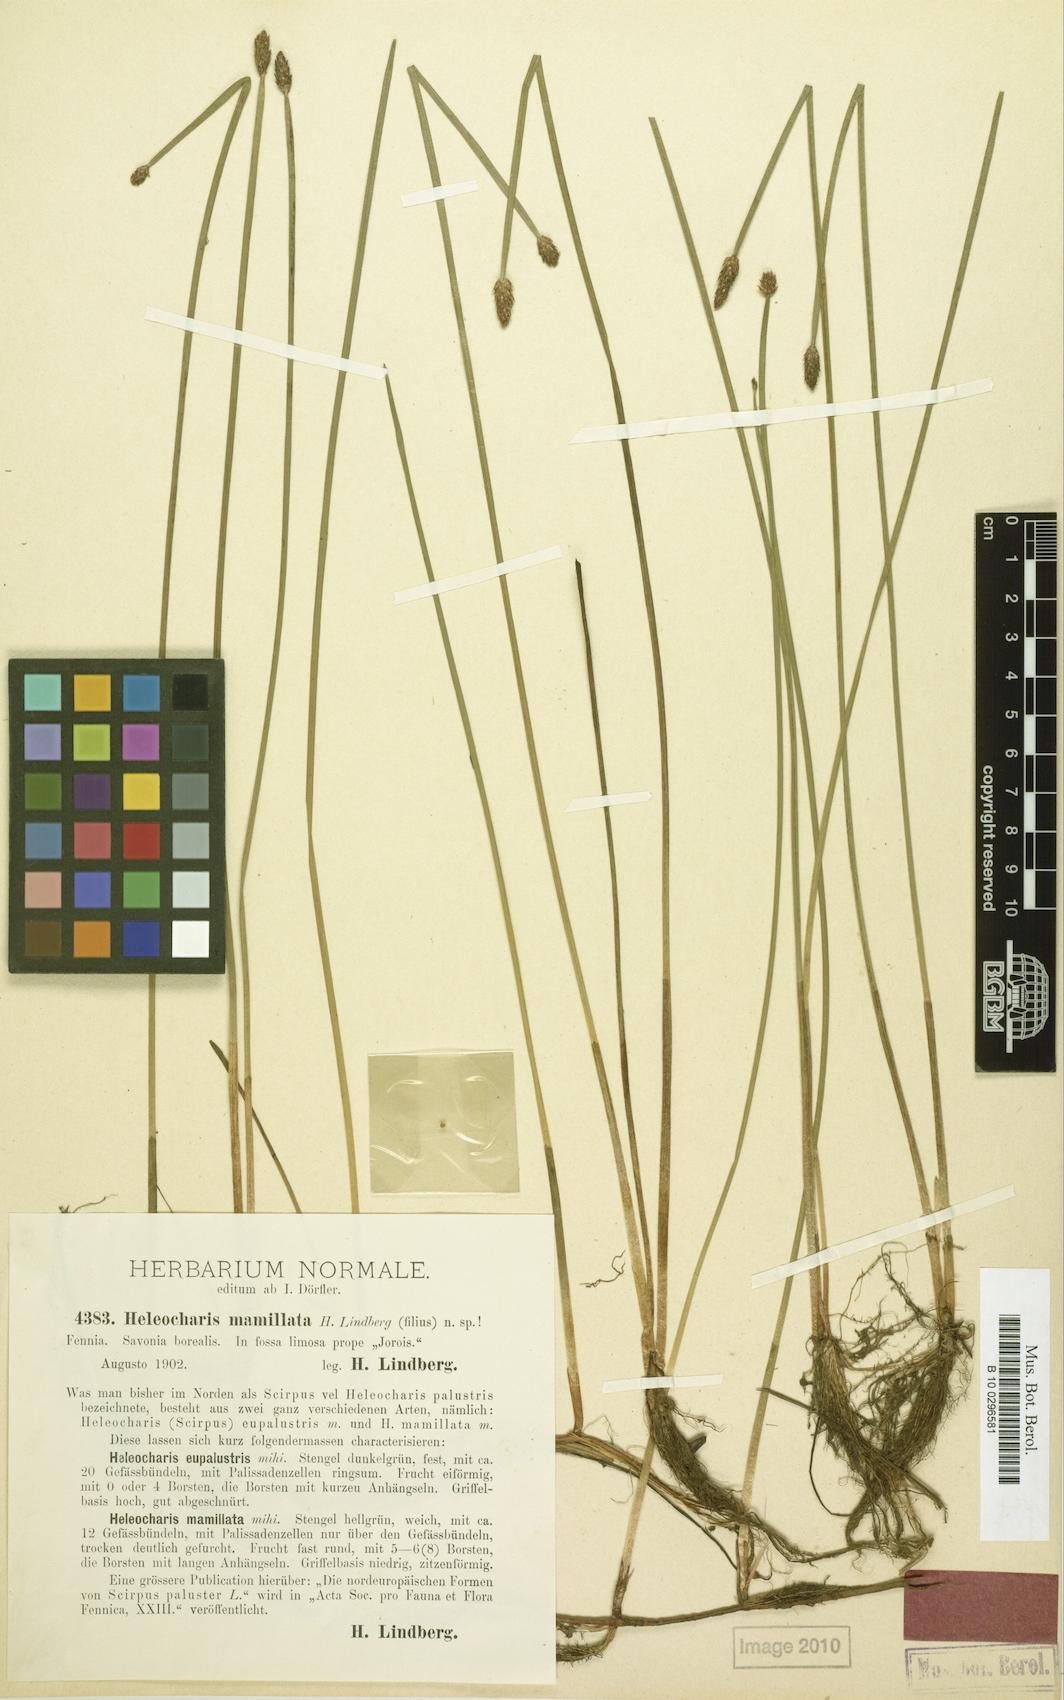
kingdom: Plantae
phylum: Tracheophyta
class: Liliopsida
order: Poales
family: Cyperaceae
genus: Eleocharis
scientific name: Eleocharis mamillata
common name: Northern spike-rush
